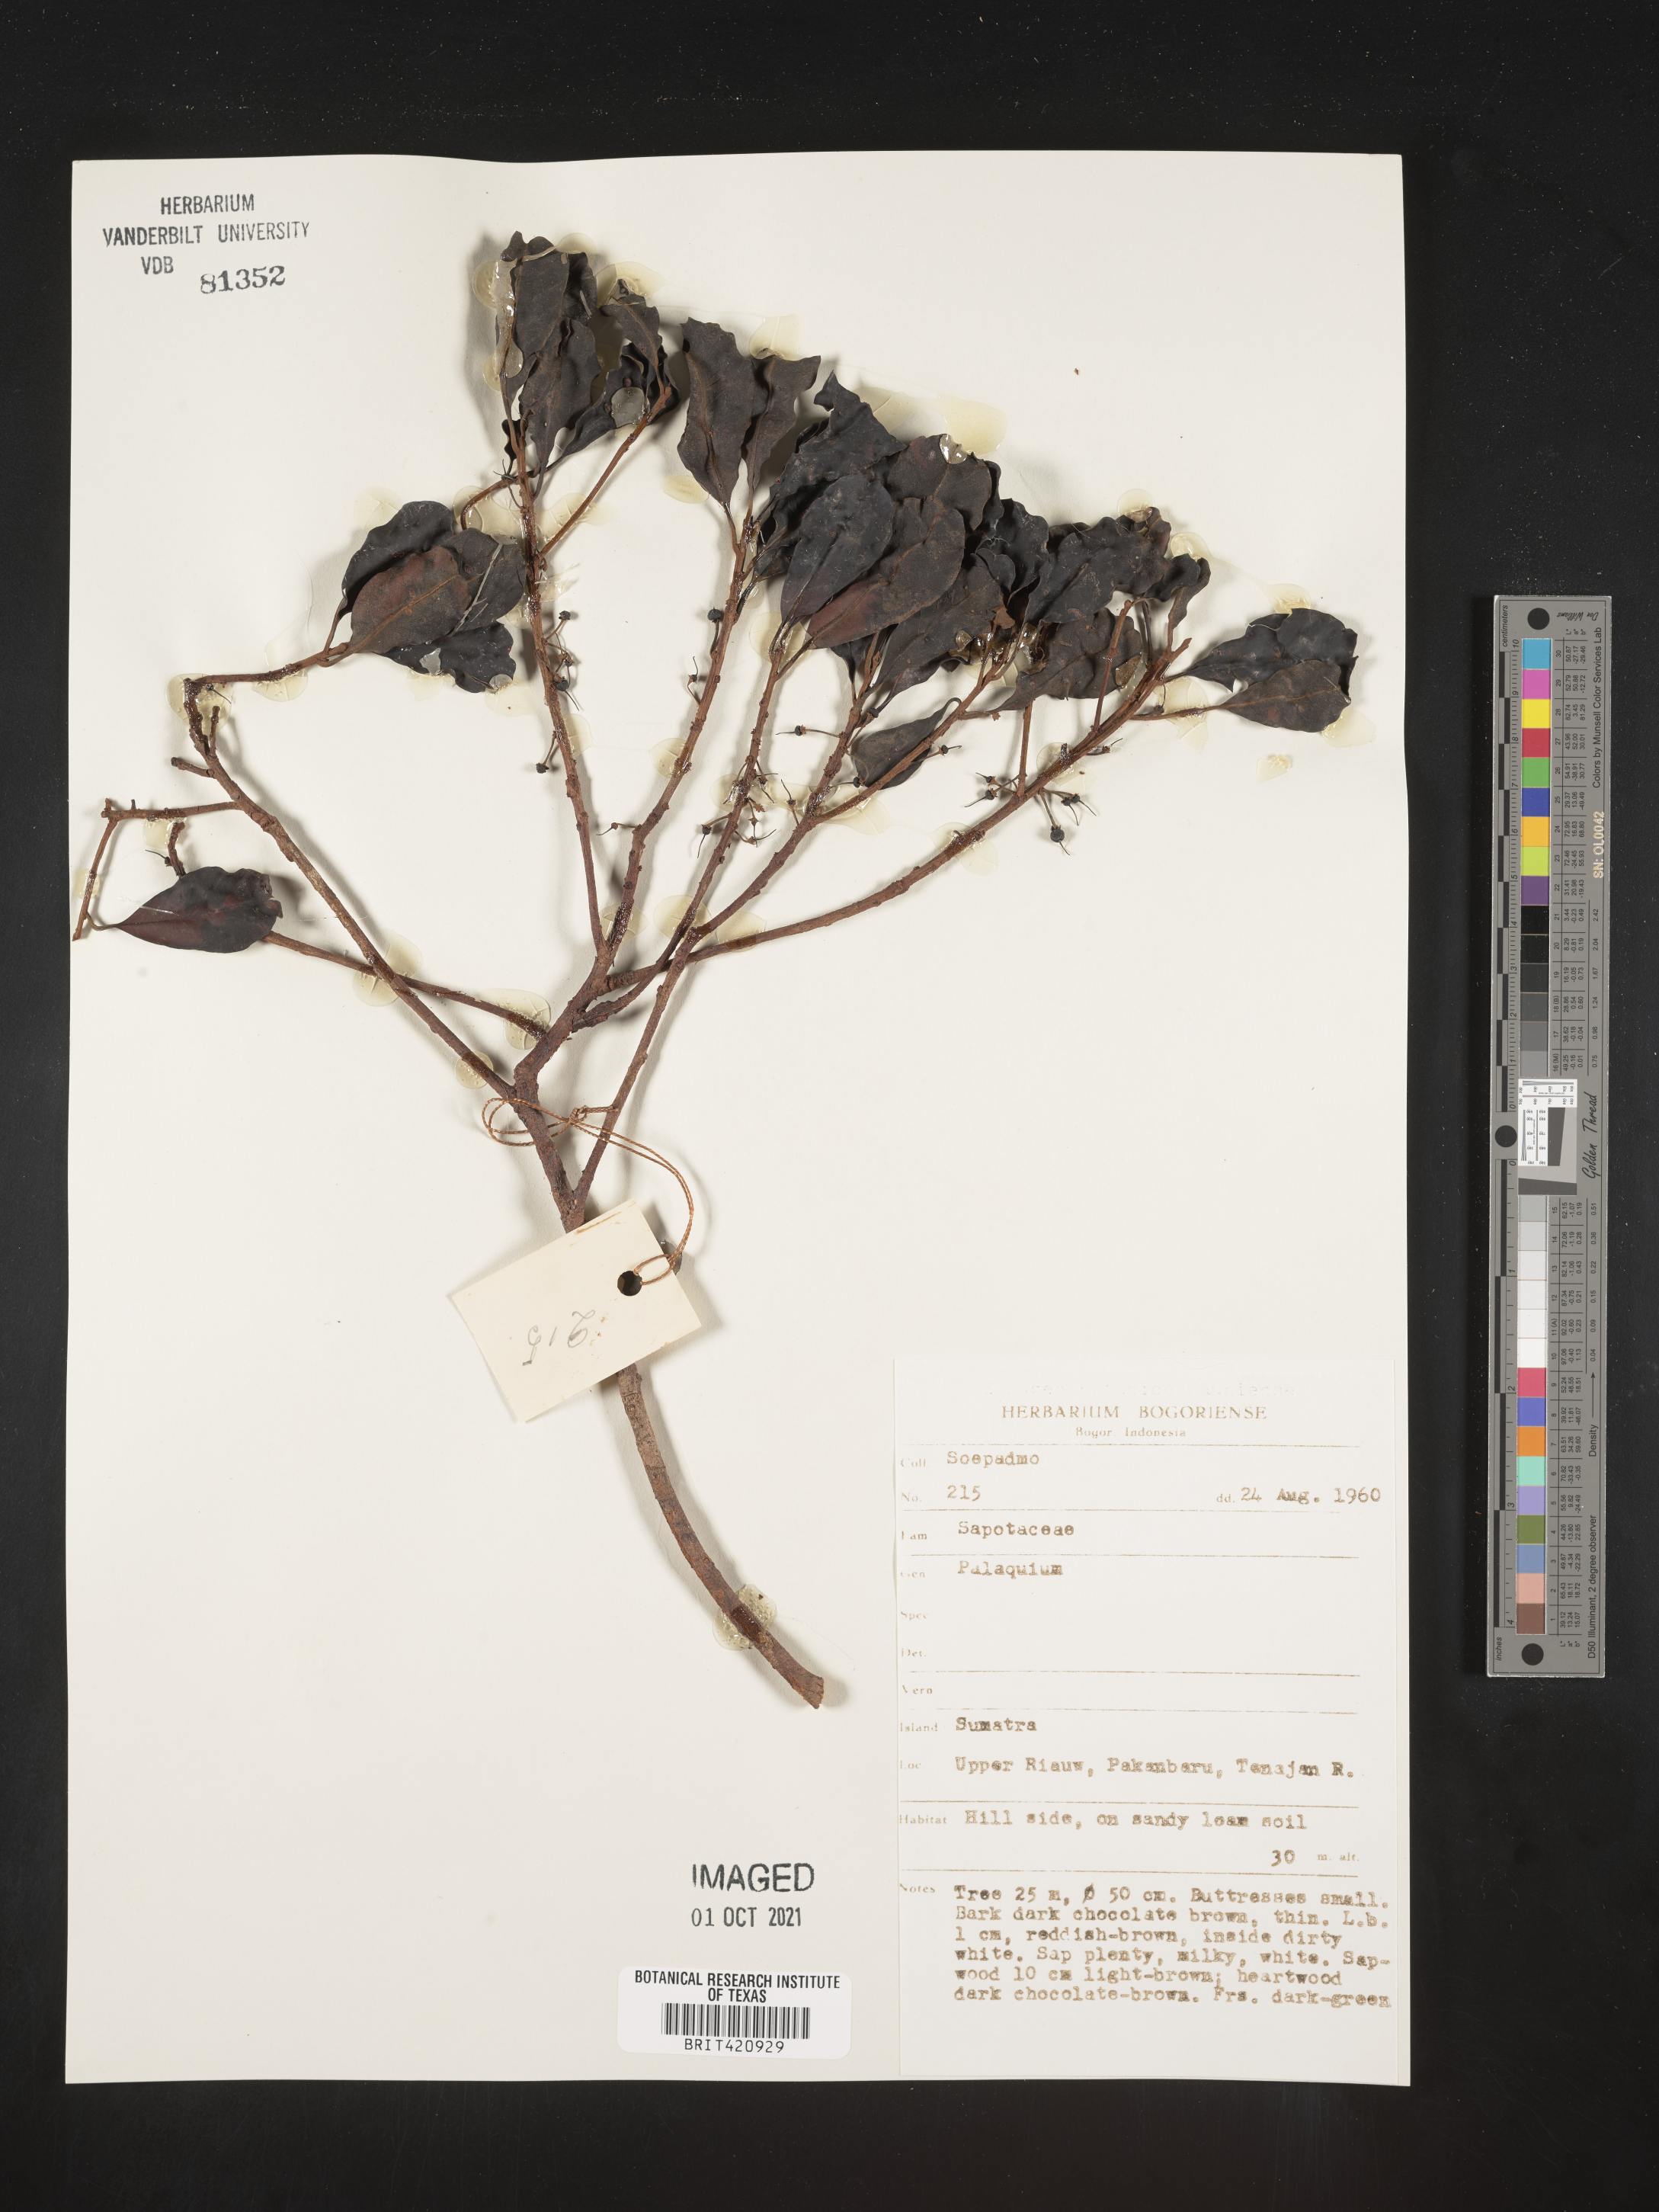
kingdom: Plantae
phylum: Tracheophyta
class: Magnoliopsida
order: Ericales
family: Sapotaceae
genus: Palaquium
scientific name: Palaquium
